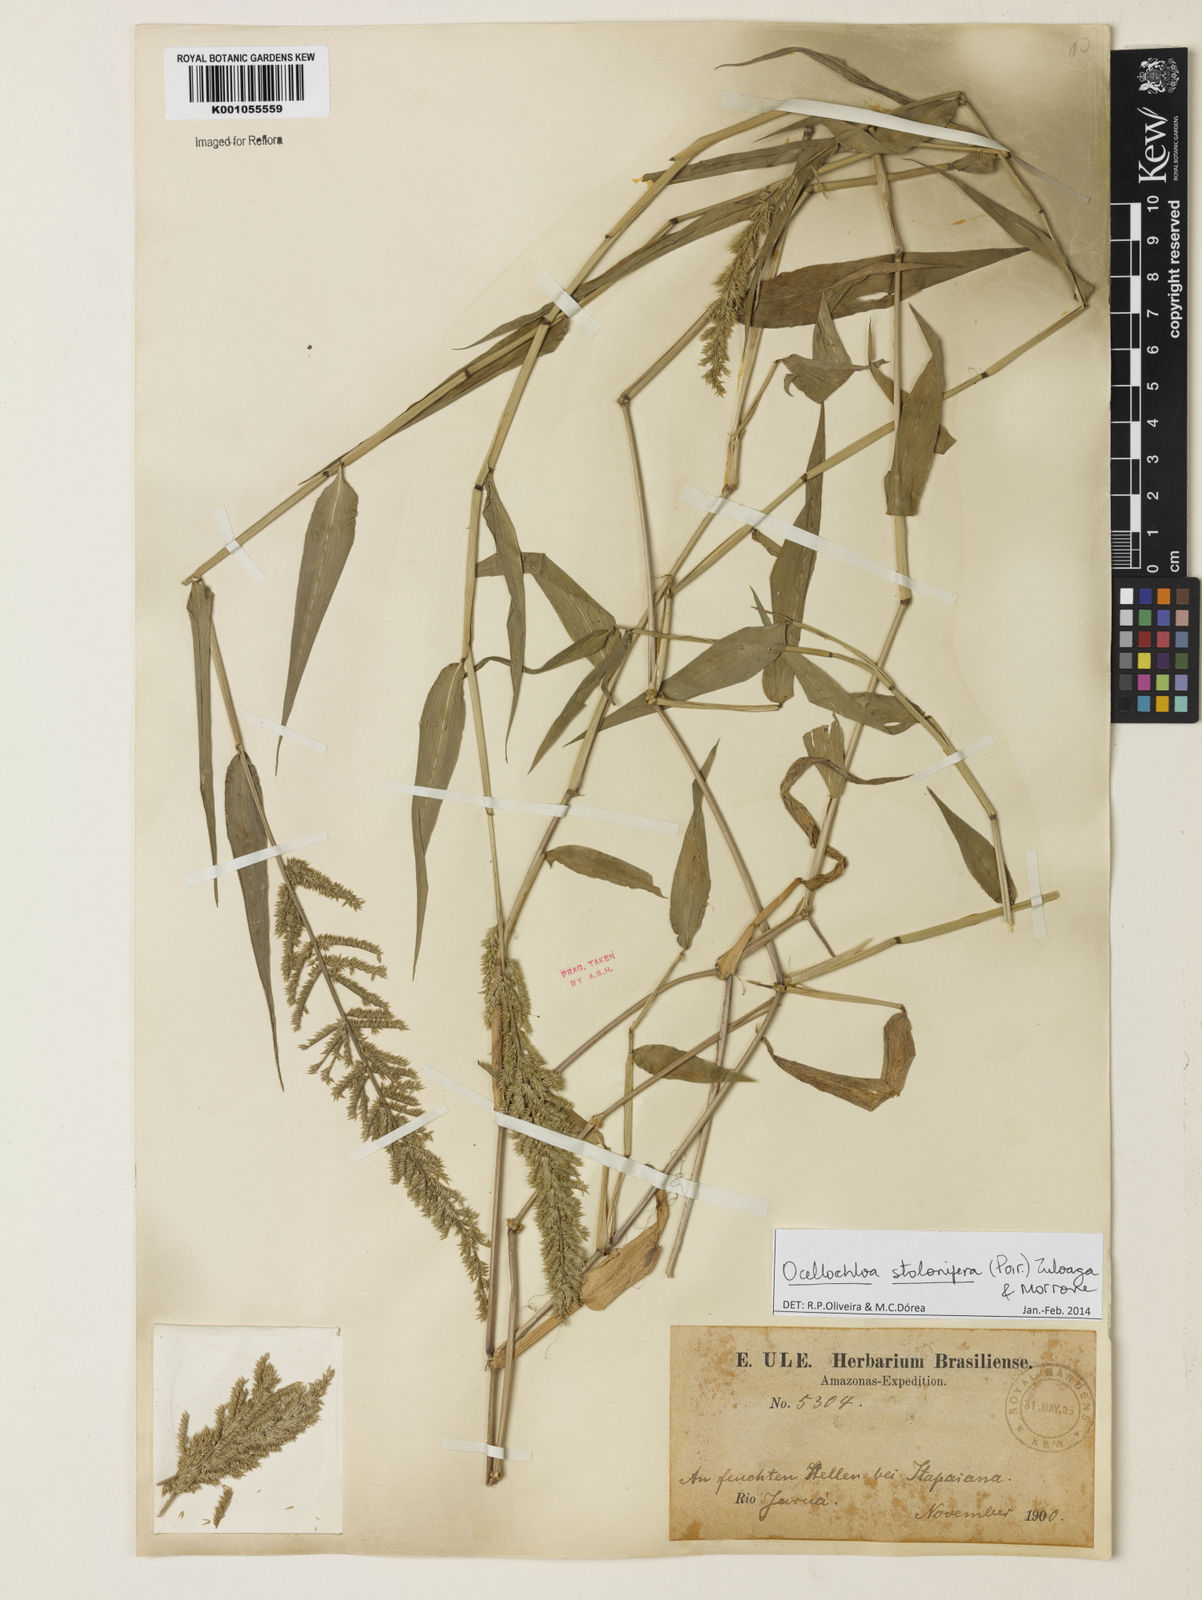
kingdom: Plantae
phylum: Tracheophyta
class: Liliopsida
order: Poales
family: Poaceae
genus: Ocellochloa
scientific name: Ocellochloa stolonifera
